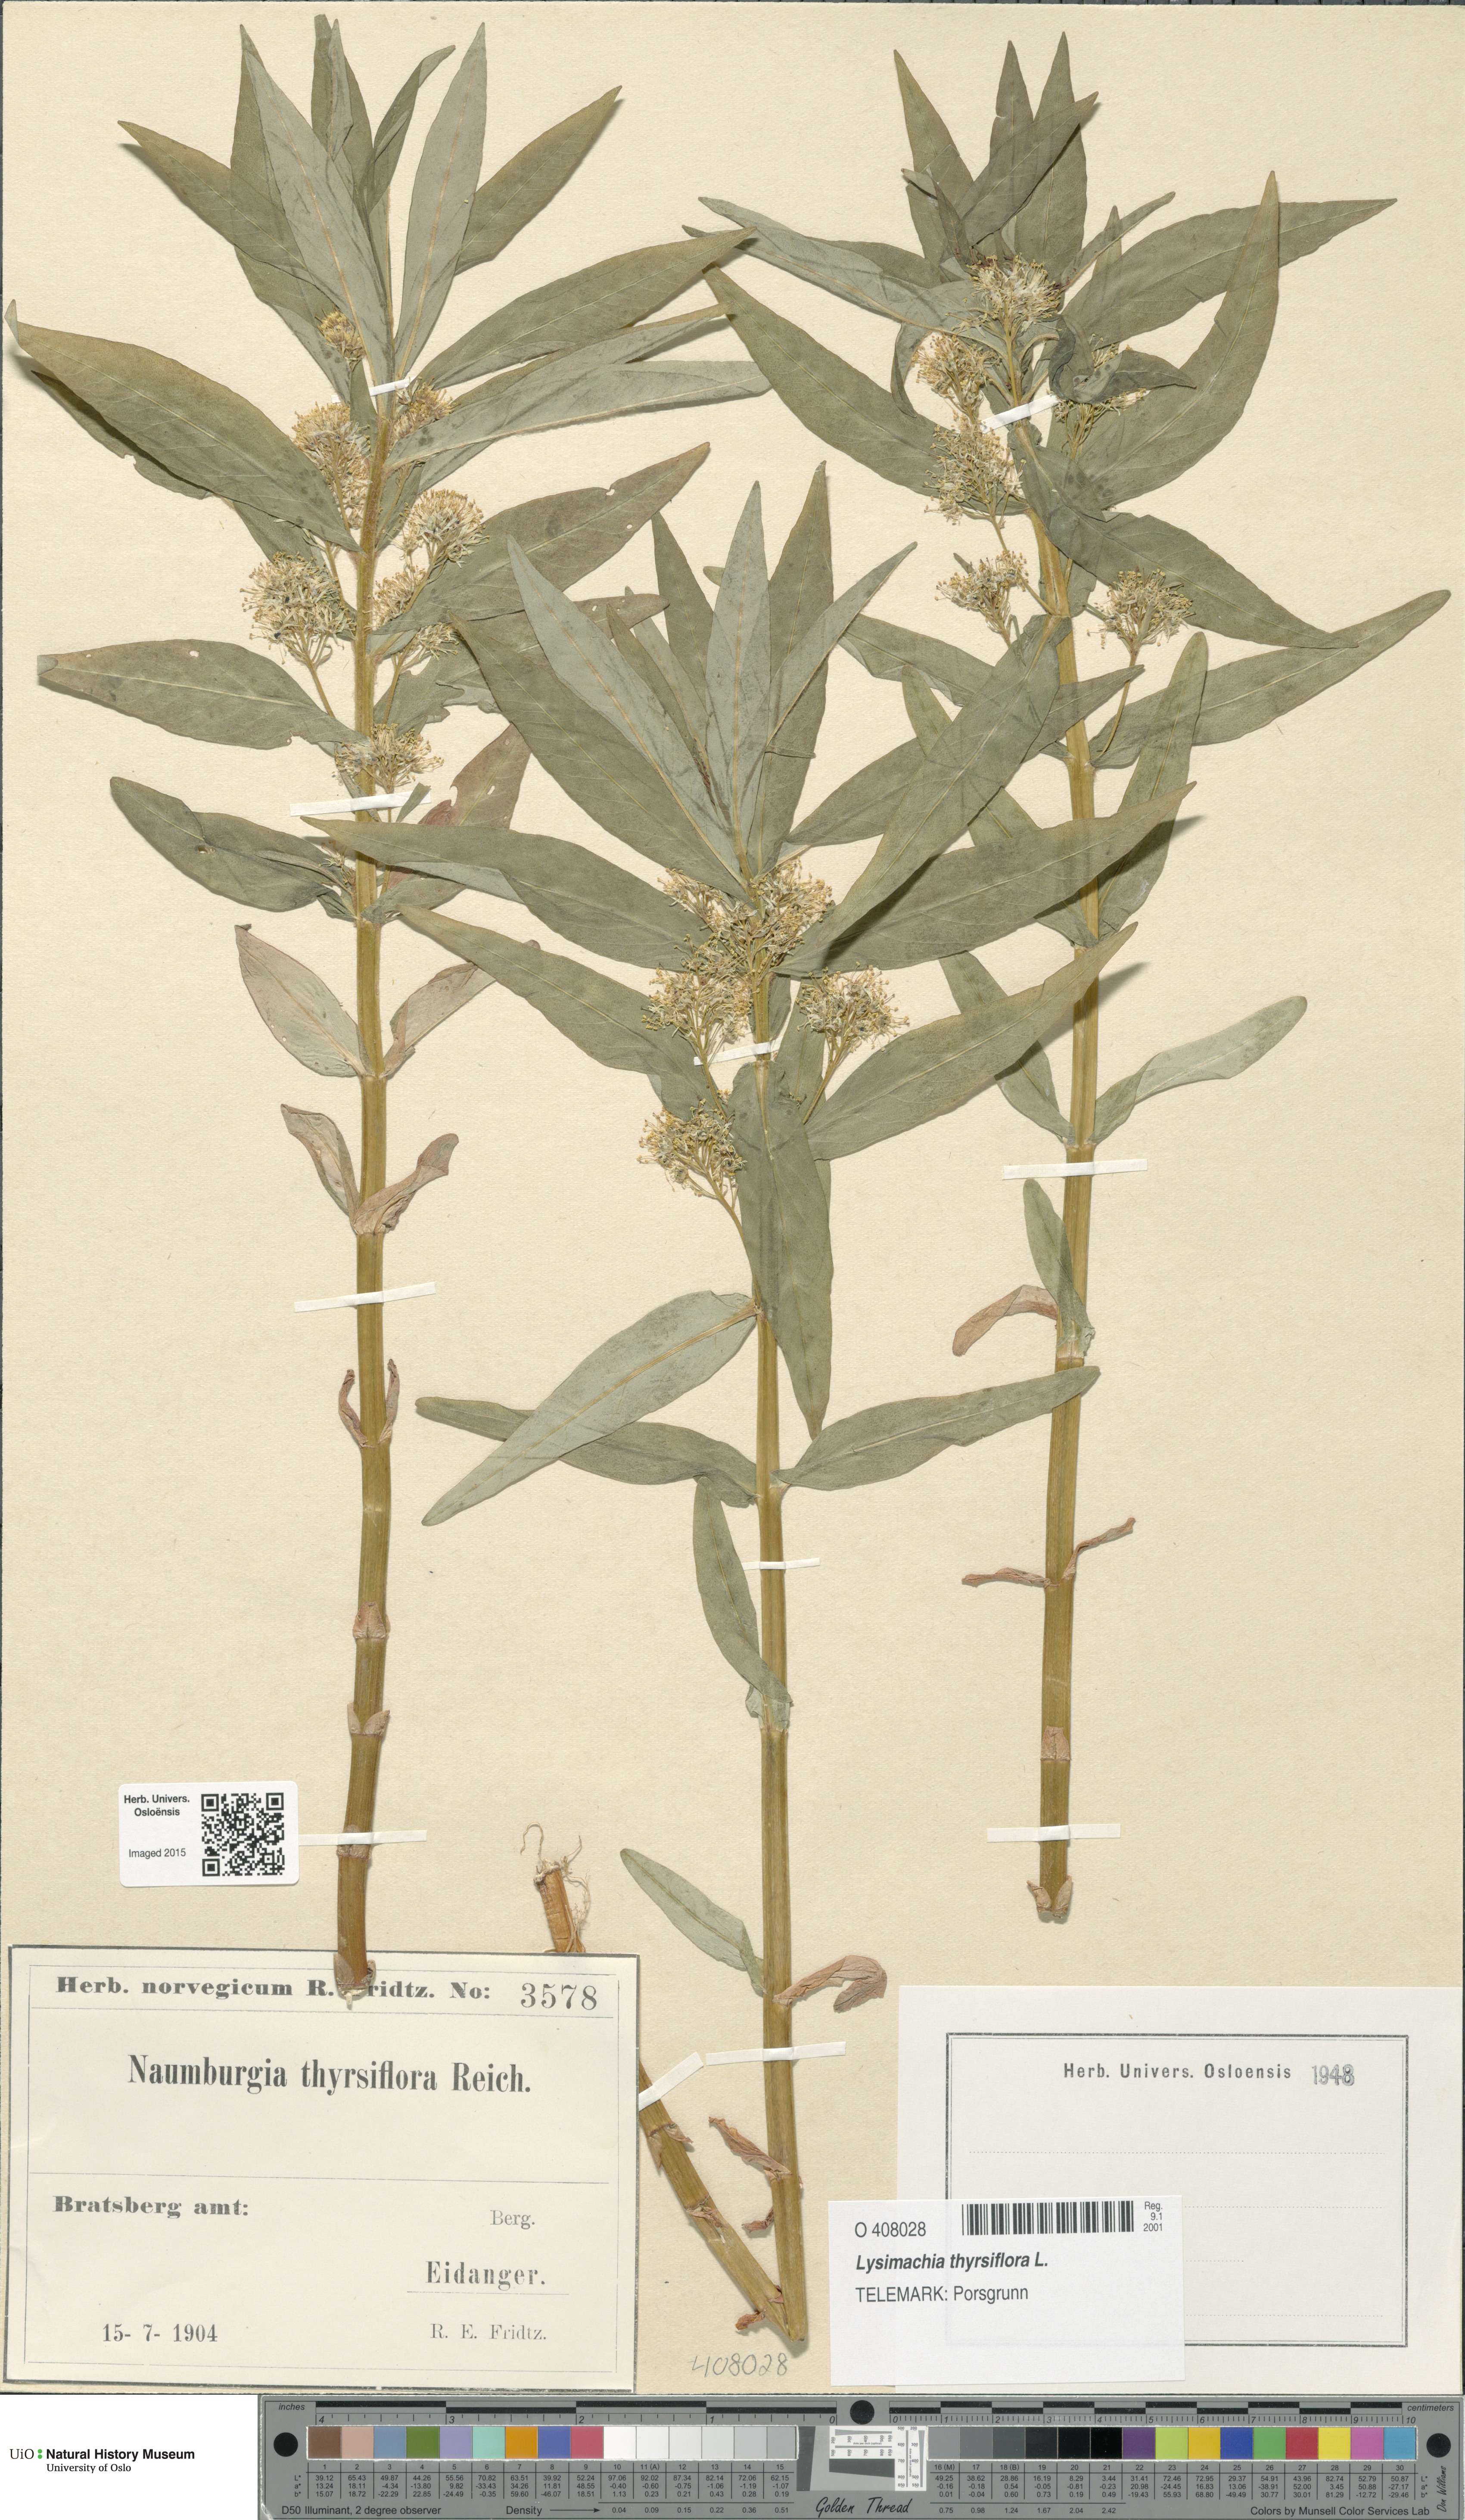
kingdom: Plantae
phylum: Tracheophyta
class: Magnoliopsida
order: Ericales
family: Primulaceae
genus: Lysimachia
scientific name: Lysimachia thyrsiflora
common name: Tufted loosestrife
